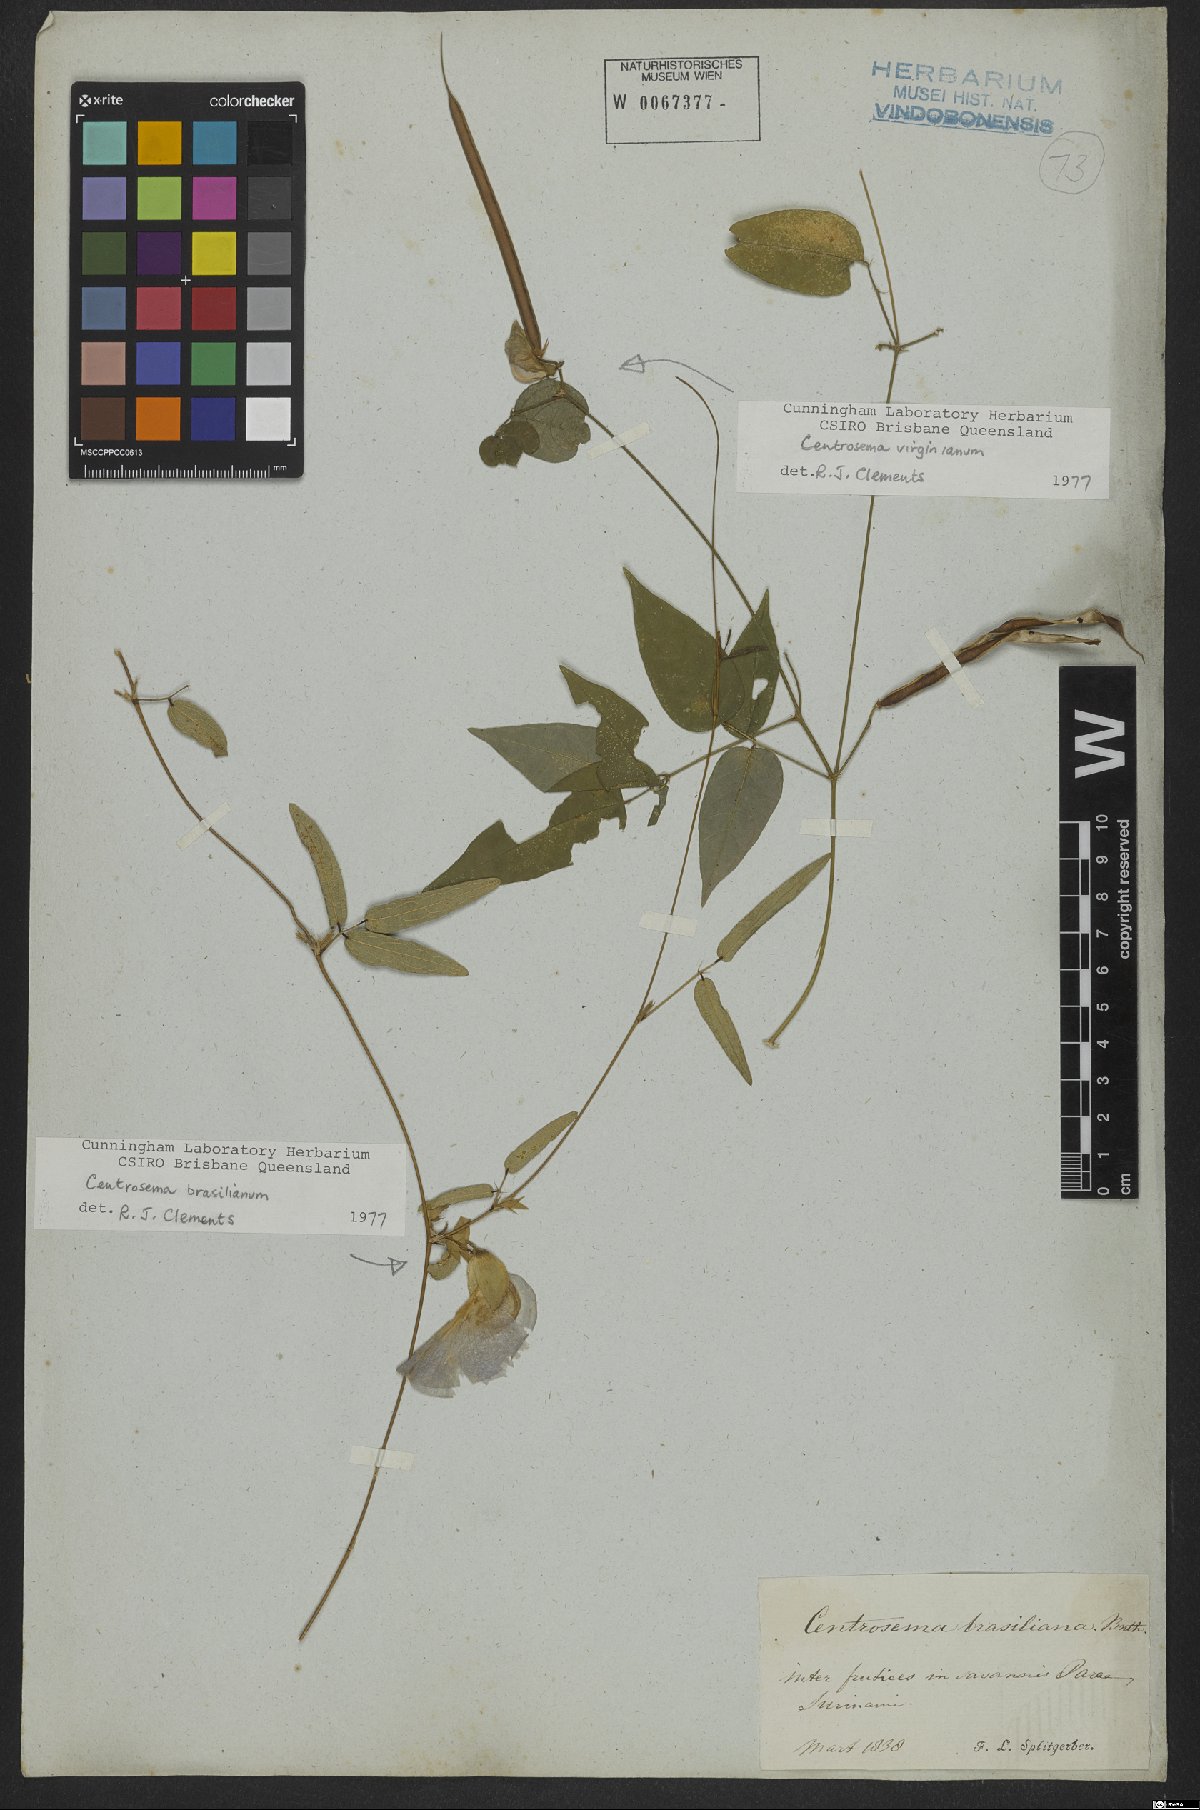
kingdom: Plantae
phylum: Tracheophyta
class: Magnoliopsida
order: Fabales
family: Fabaceae
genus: Centrosema
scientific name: Centrosema brasilianum
